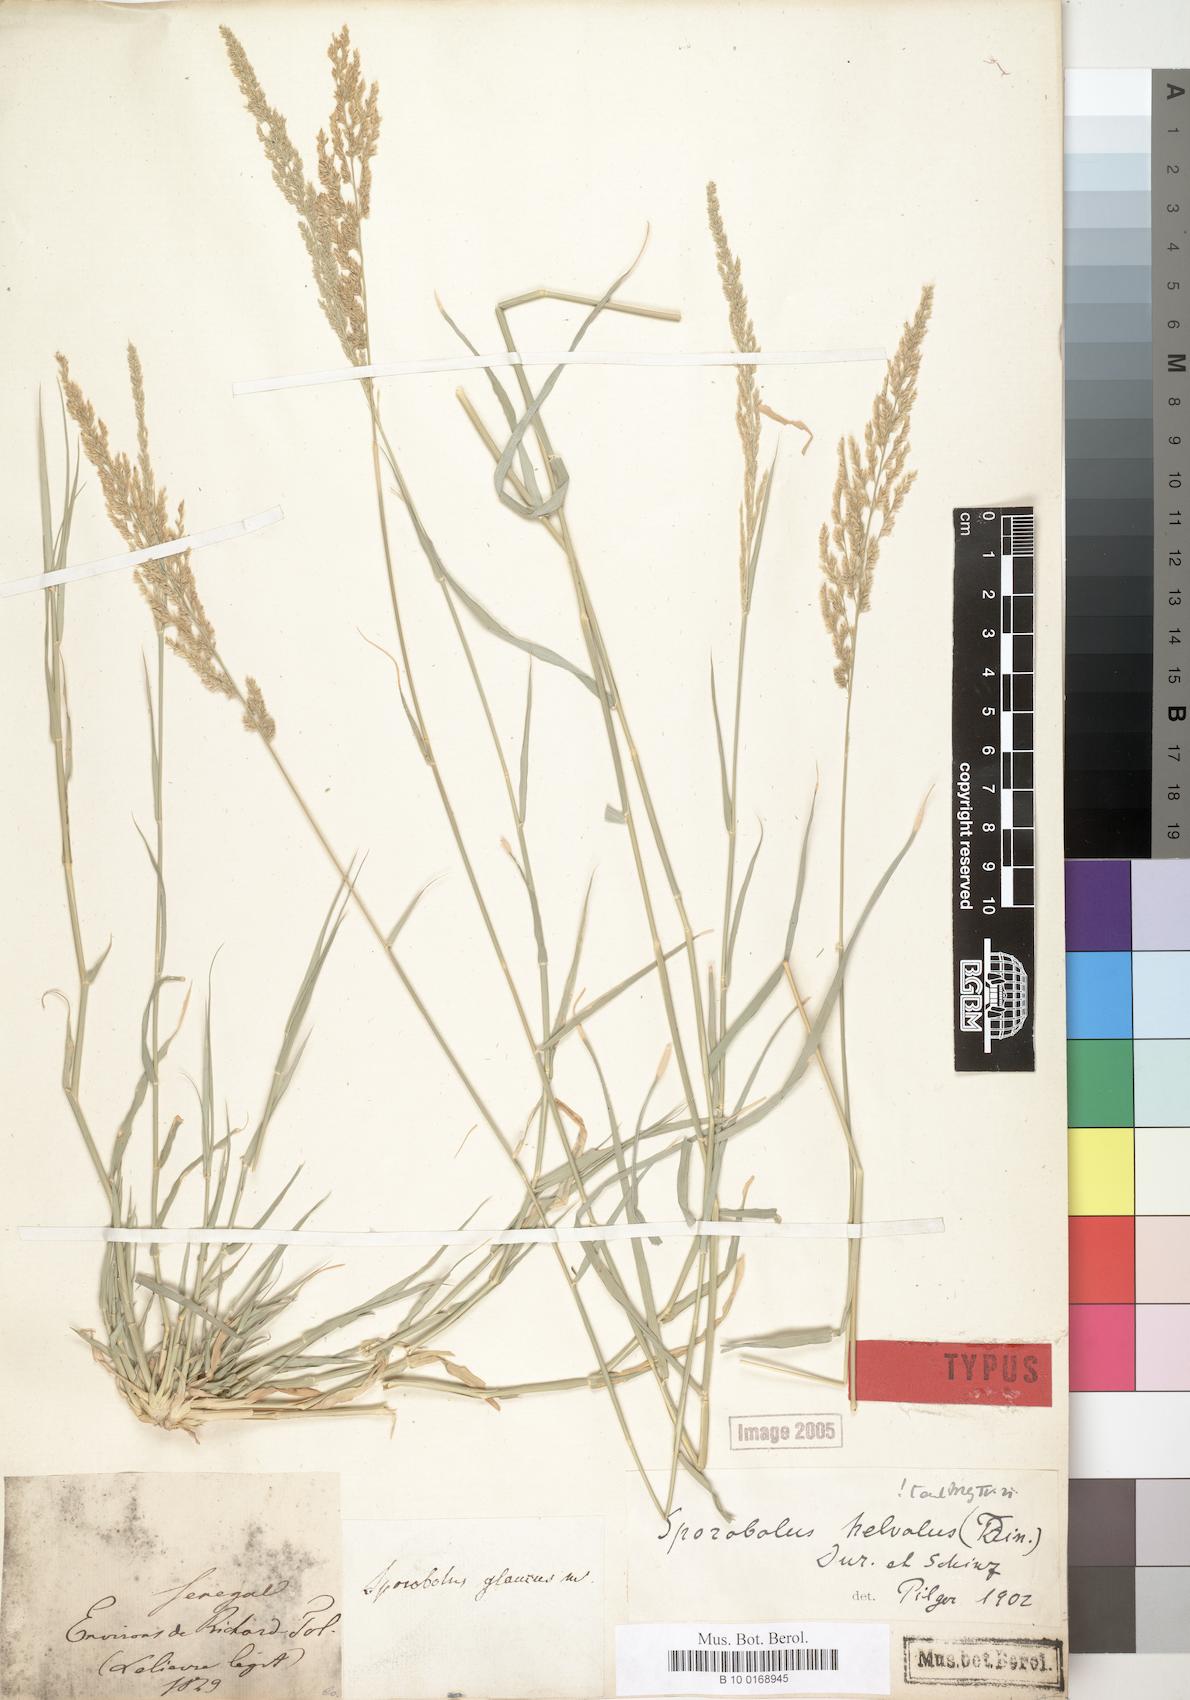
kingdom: Plantae
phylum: Tracheophyta
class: Liliopsida
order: Poales
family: Poaceae
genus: Sporobolus
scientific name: Sporobolus helvolus
